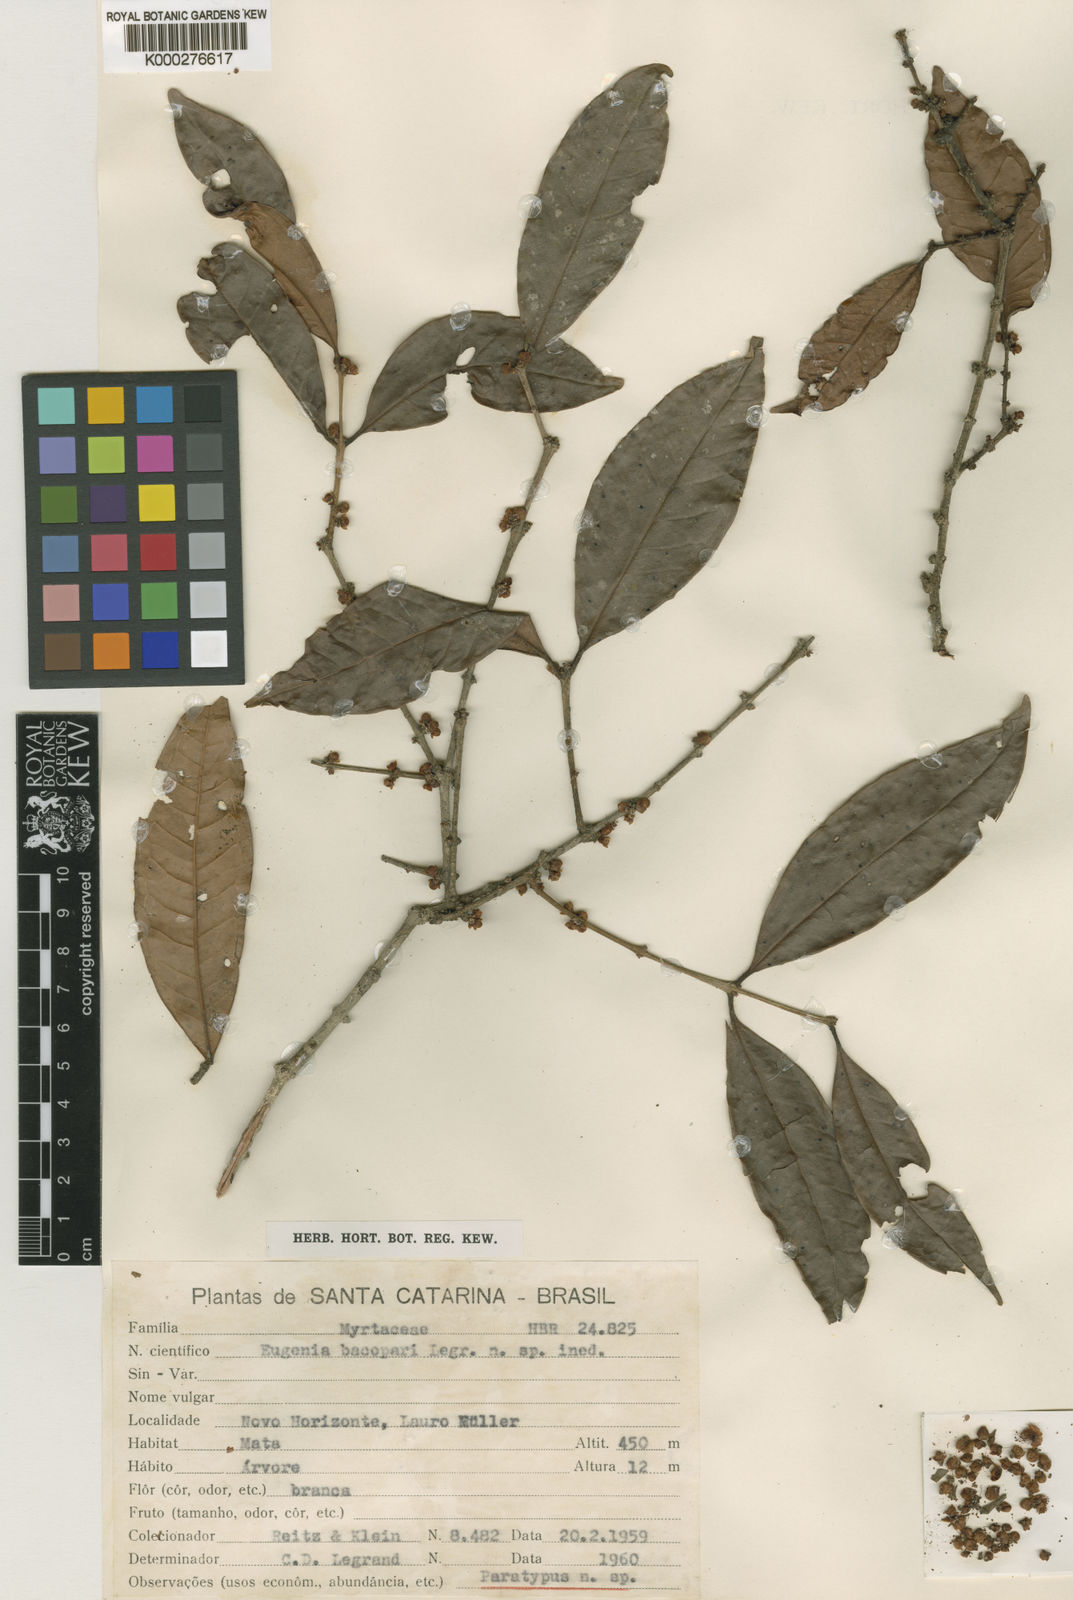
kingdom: Plantae
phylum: Tracheophyta
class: Magnoliopsida
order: Myrtales
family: Myrtaceae
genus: Eugenia
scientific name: Eugenia bacopari
